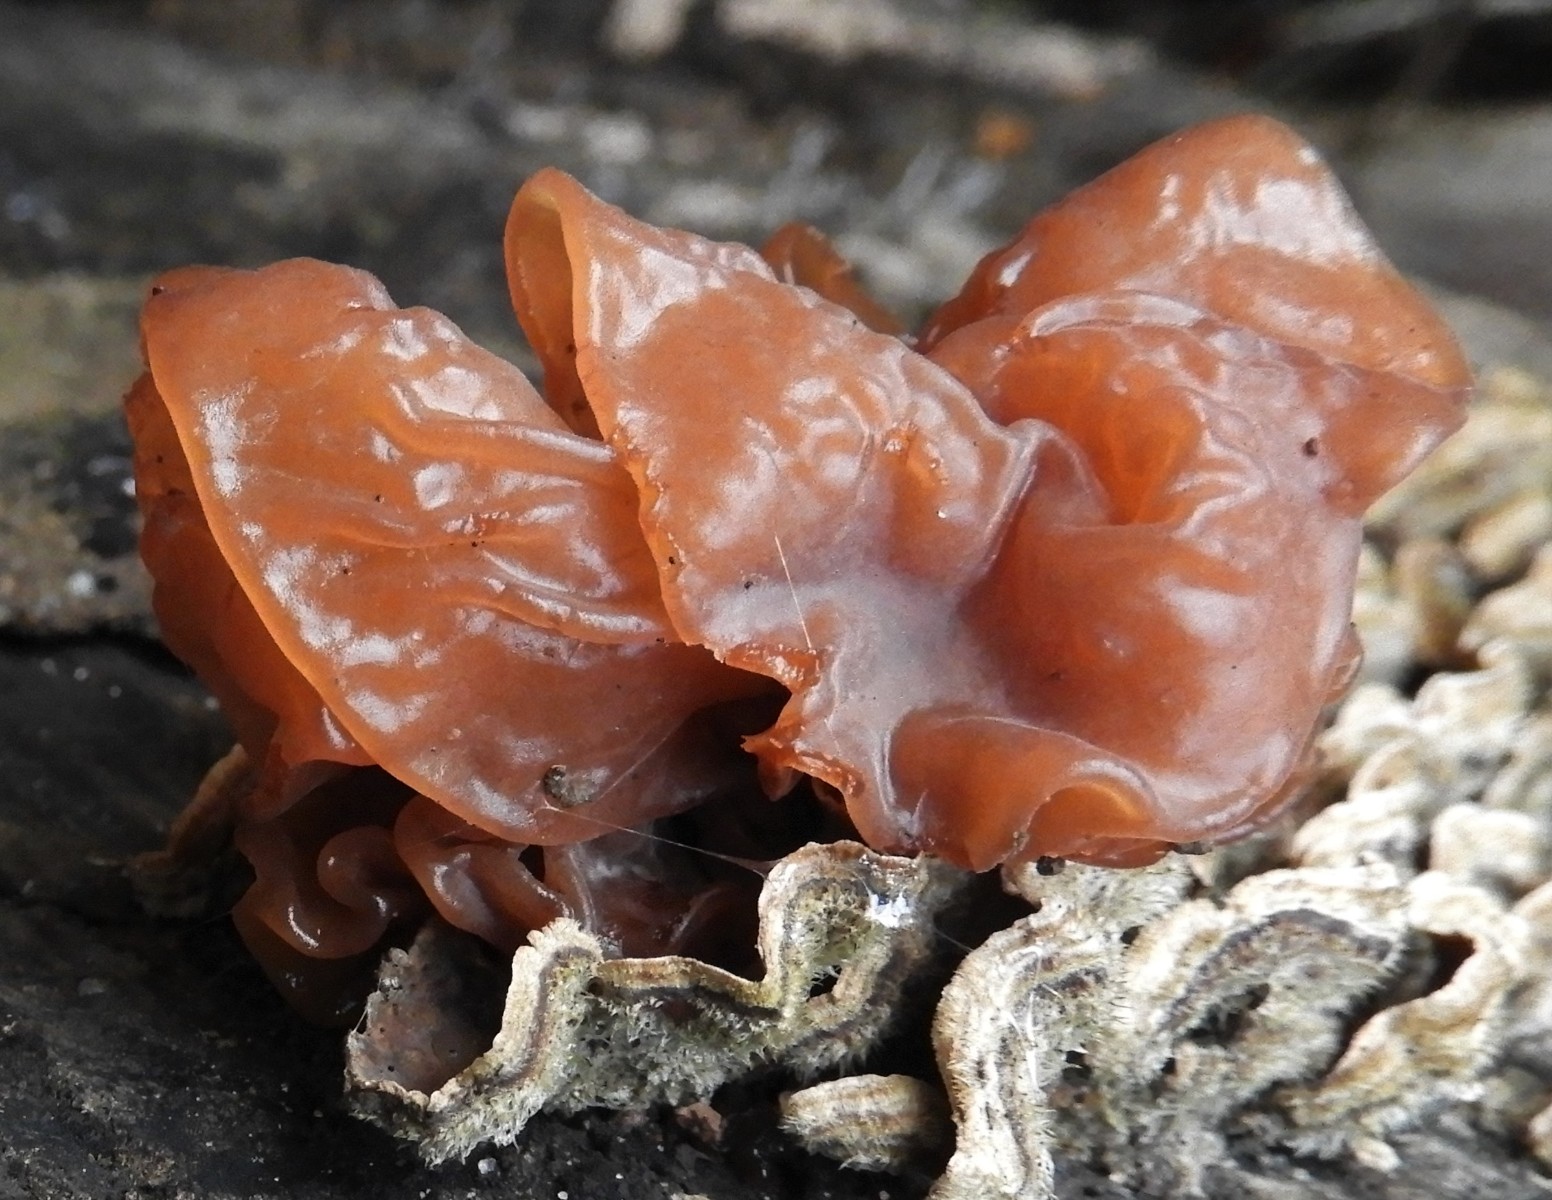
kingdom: Fungi
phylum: Basidiomycota
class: Tremellomycetes
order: Tremellales
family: Tremellaceae
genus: Phaeotremella
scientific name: Phaeotremella foliacea
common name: brun bævresvamp
